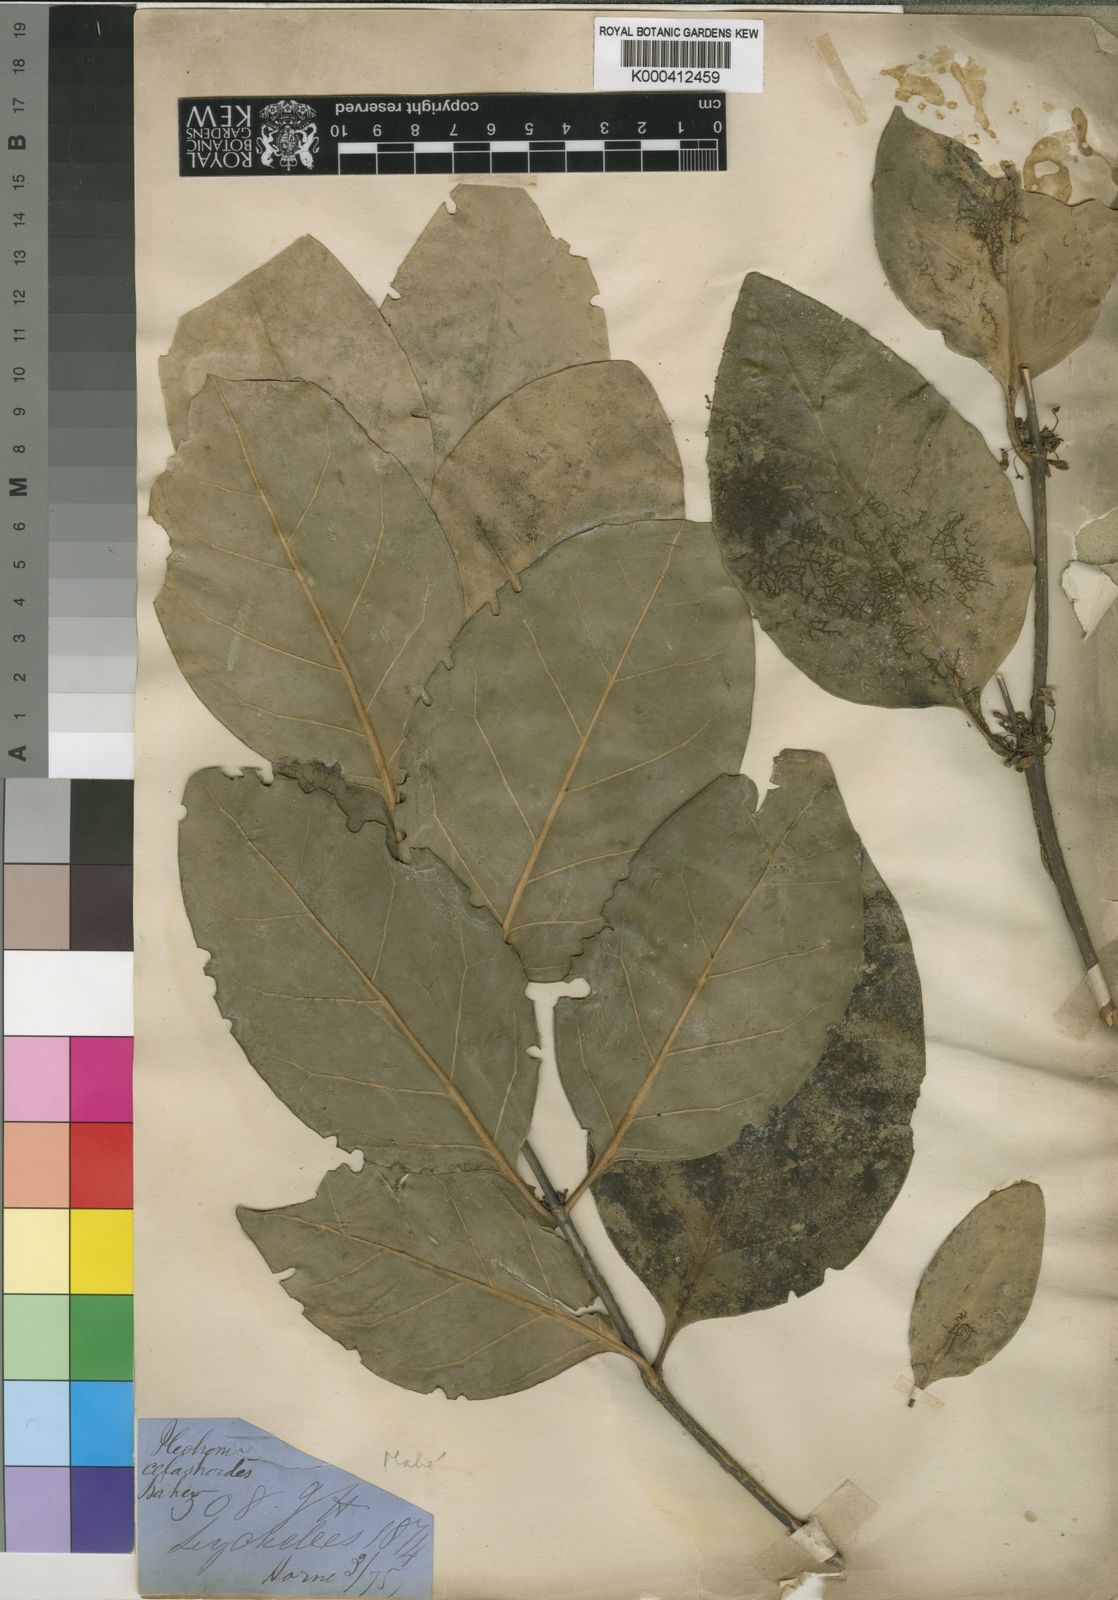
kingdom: Plantae
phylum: Tracheophyta
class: Magnoliopsida
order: Gentianales
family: Rubiaceae
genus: Peponidium
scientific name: Peponidium celastroides
